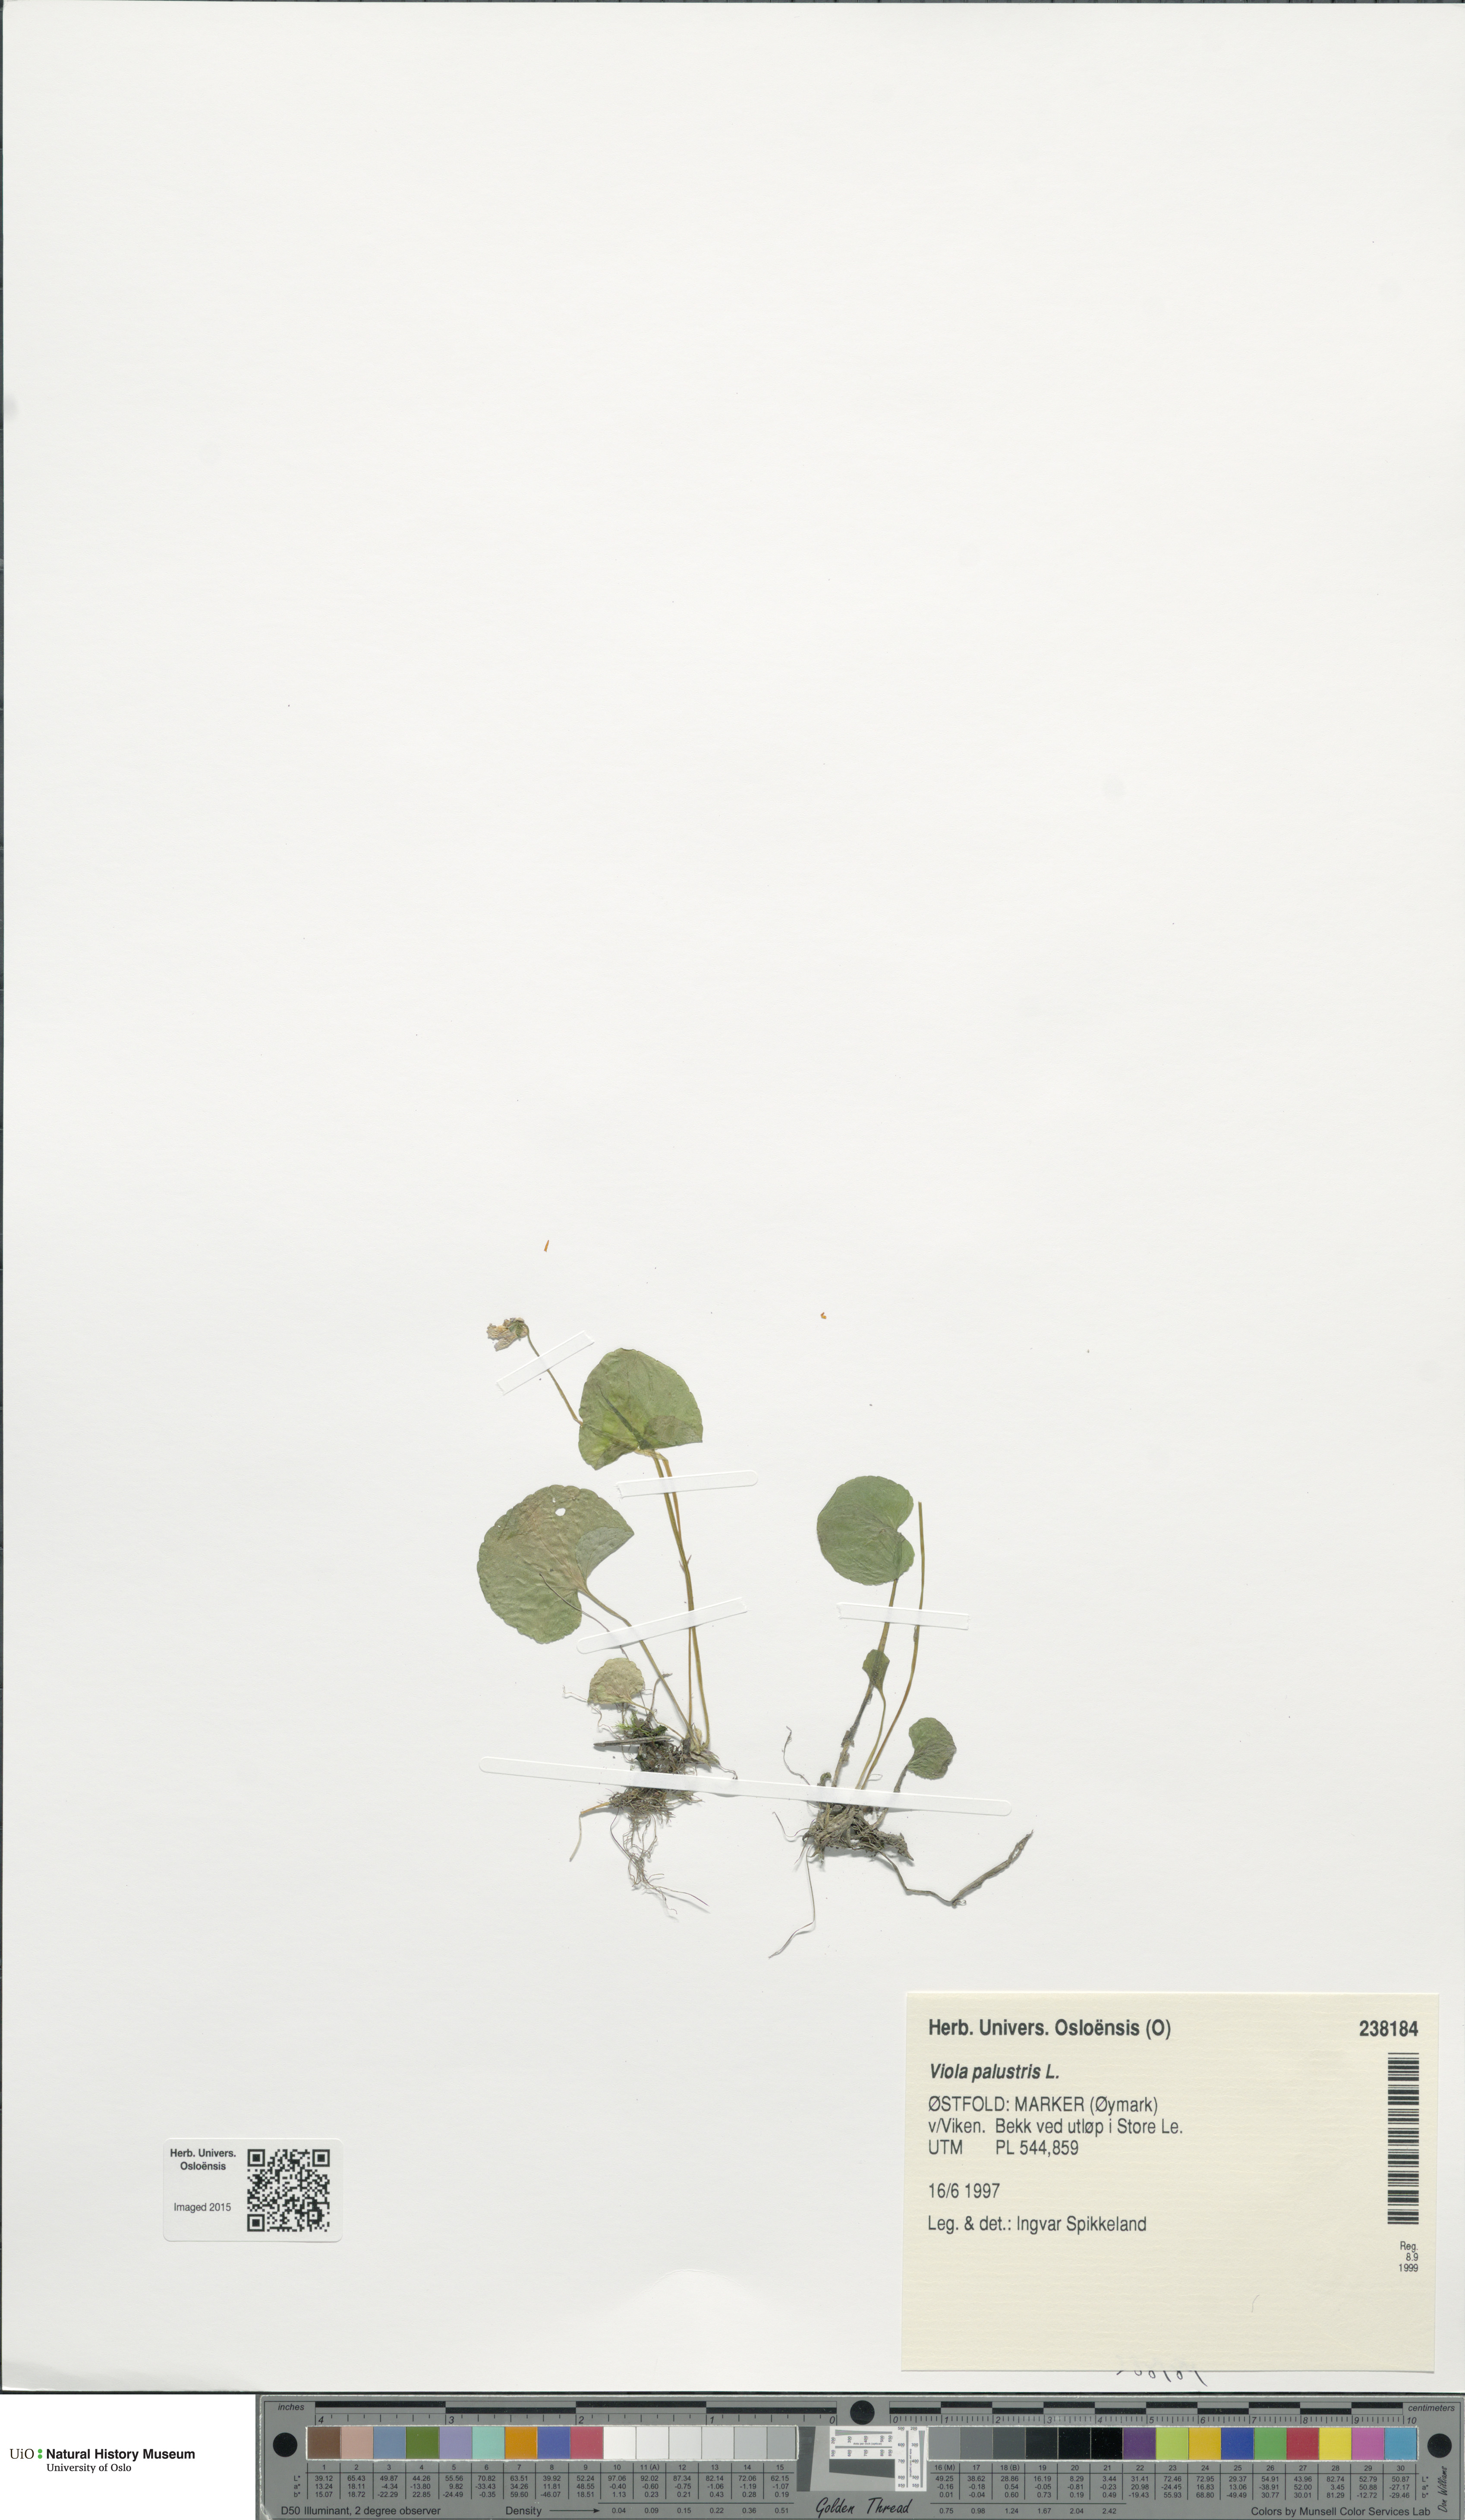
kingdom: Plantae
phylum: Tracheophyta
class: Magnoliopsida
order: Malpighiales
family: Violaceae
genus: Viola
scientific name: Viola palustris
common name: Marsh violet
